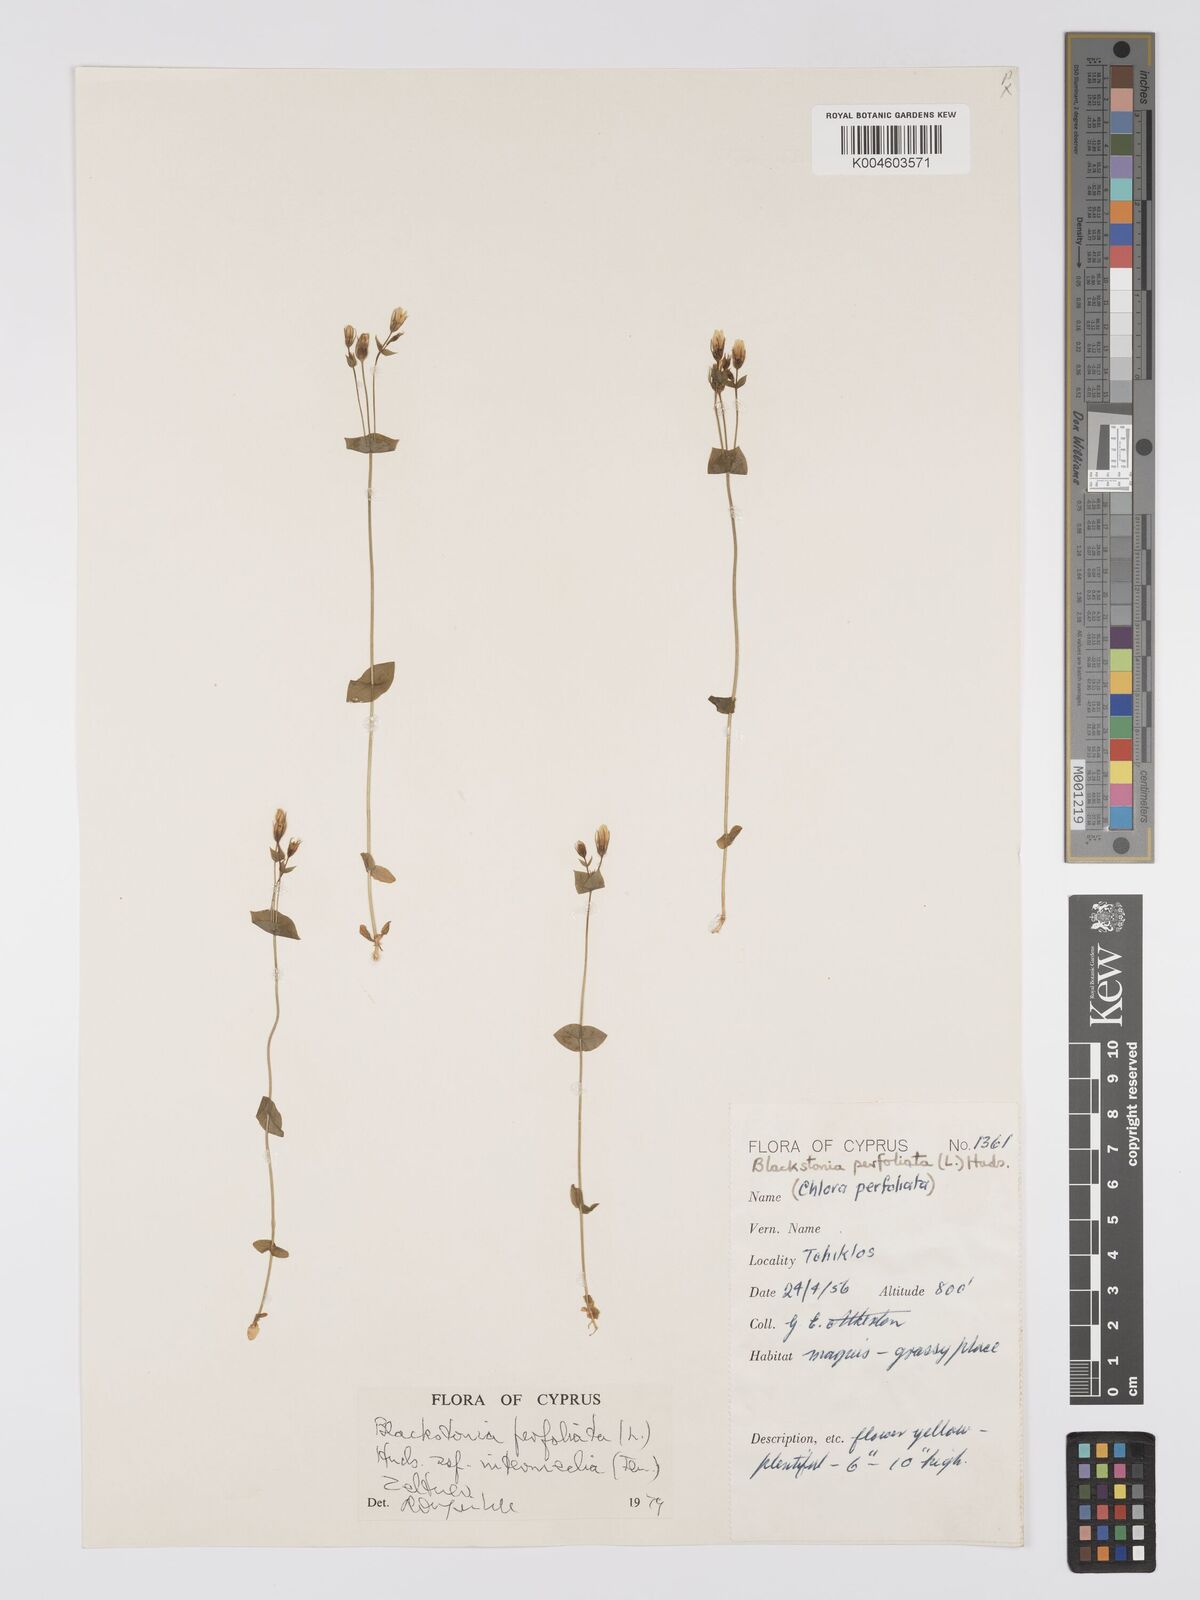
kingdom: Plantae
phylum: Tracheophyta
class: Magnoliopsida
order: Gentianales
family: Gentianaceae
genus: Blackstonia
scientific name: Blackstonia perfoliata
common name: Yellow-wort
